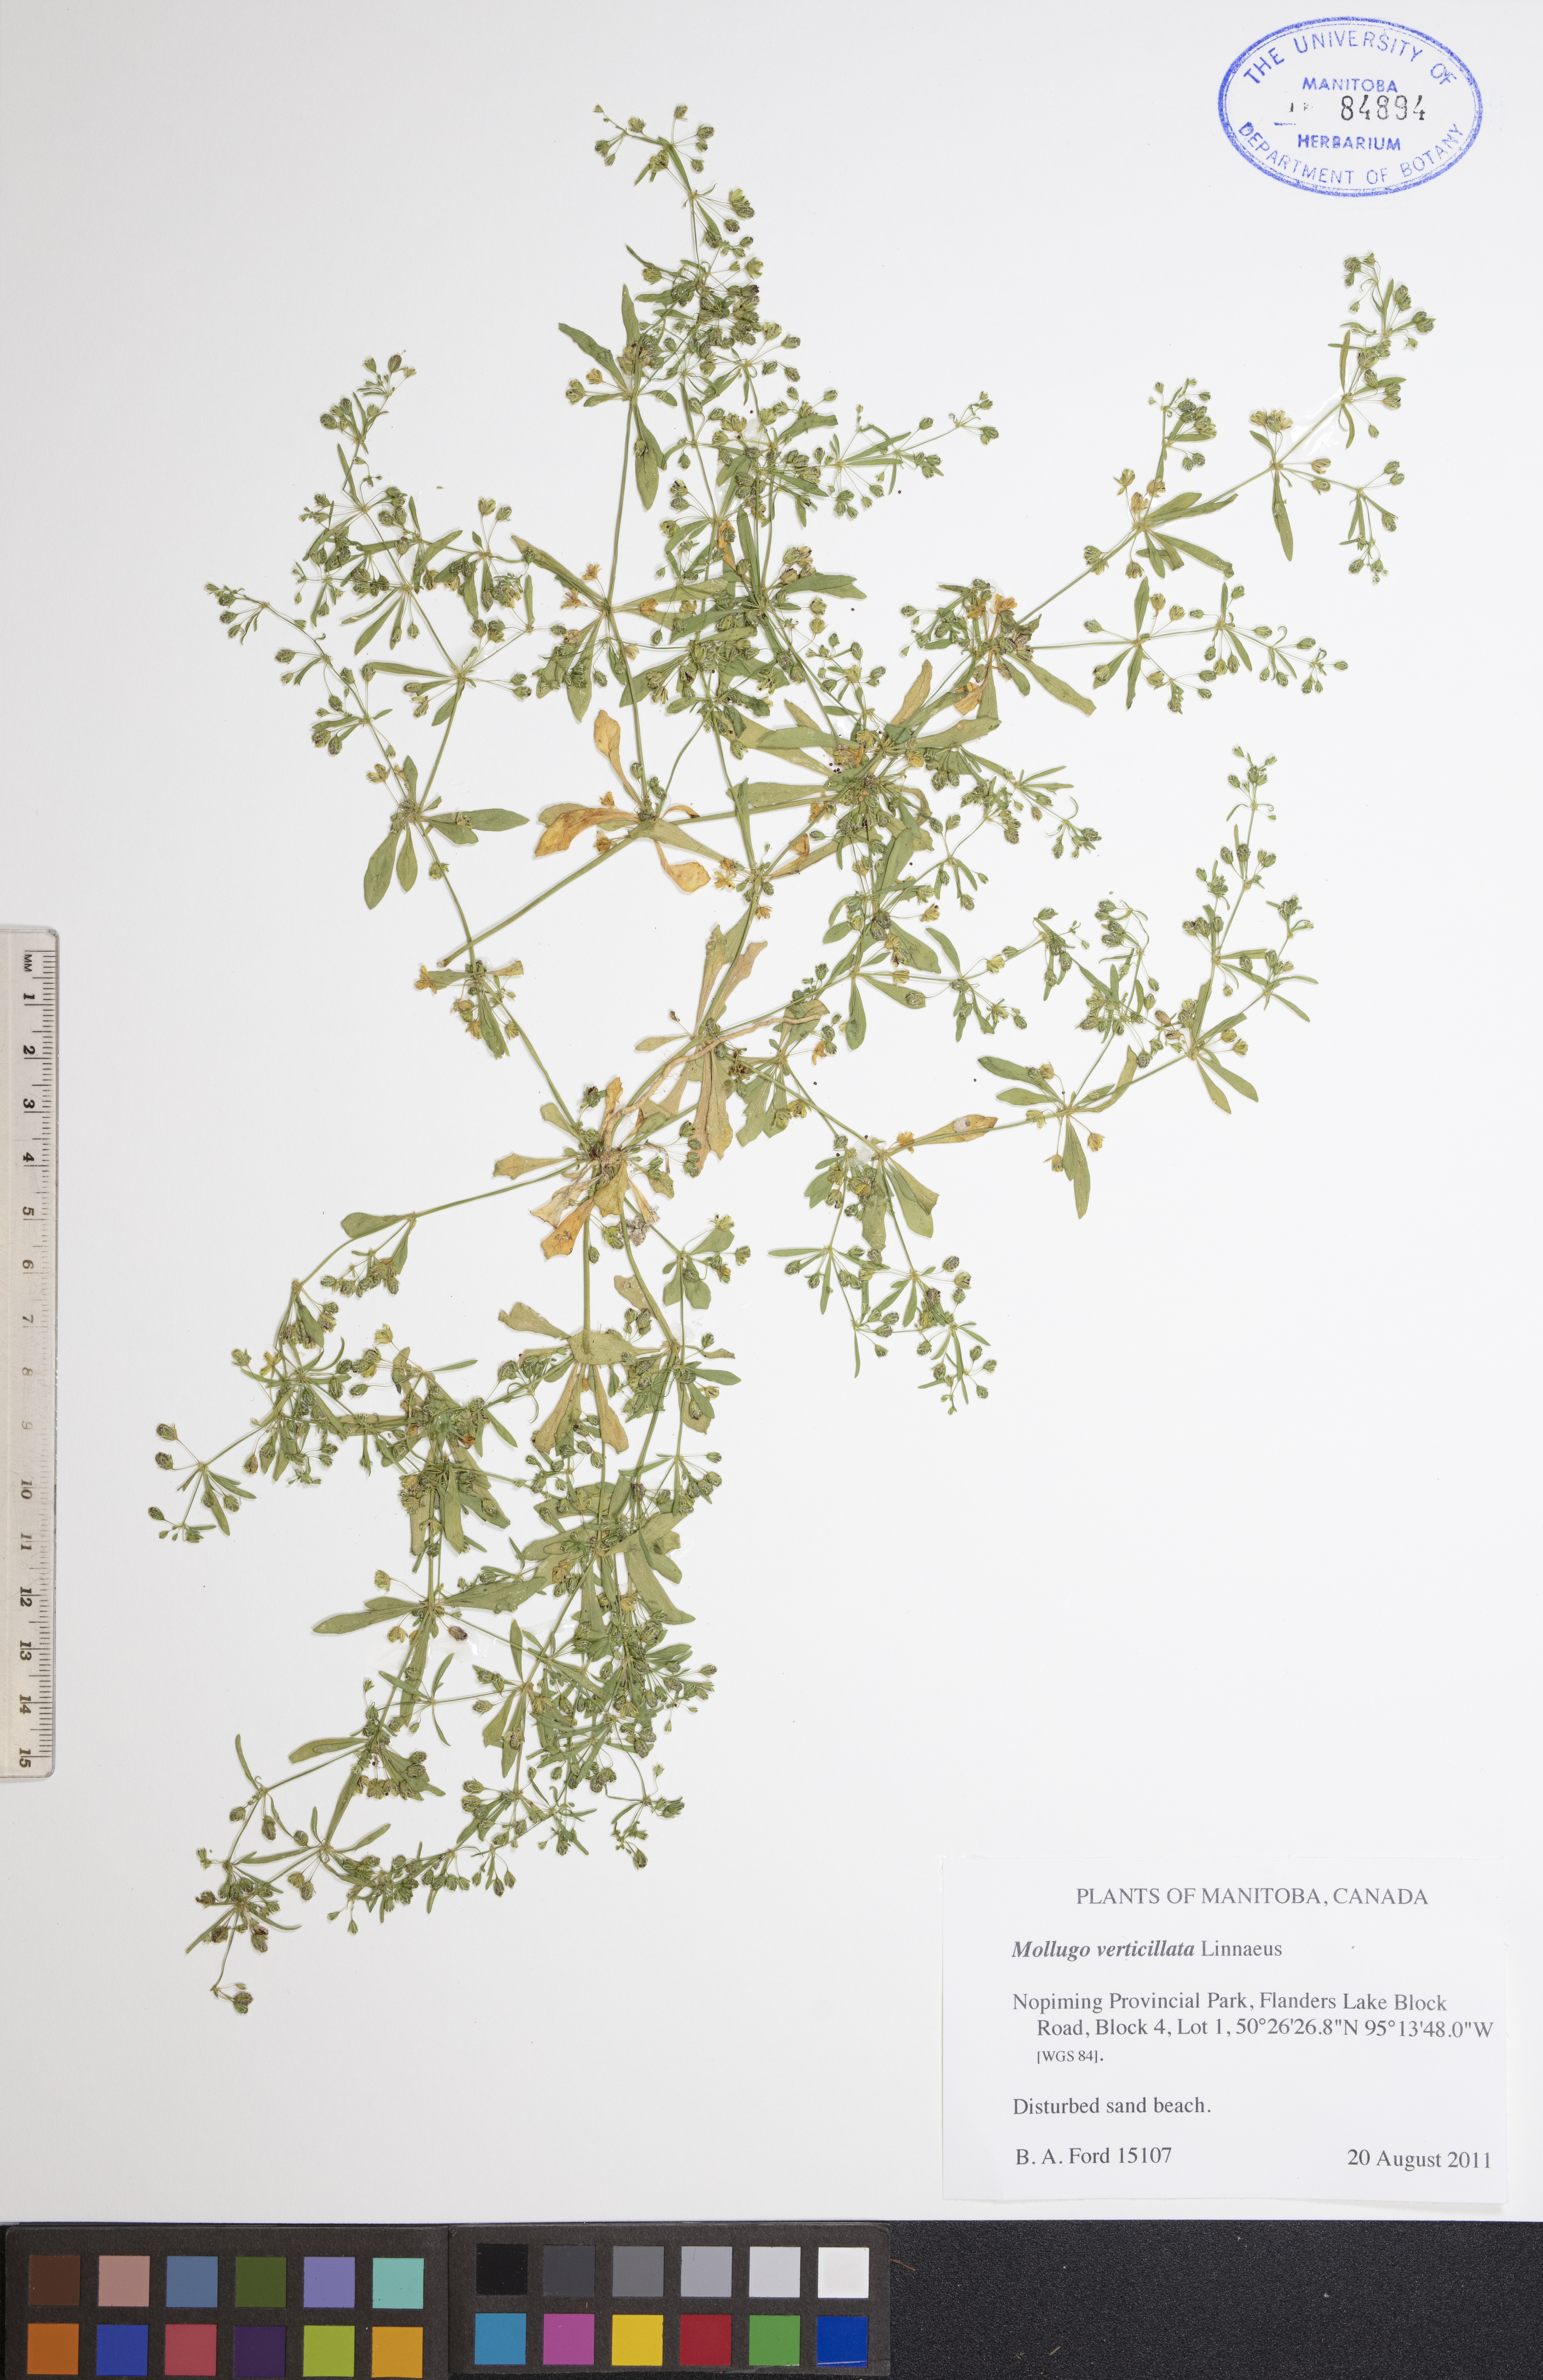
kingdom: Plantae
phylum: Tracheophyta
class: Magnoliopsida
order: Caryophyllales
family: Molluginaceae
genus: Mollugo
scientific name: Mollugo verticillata
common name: Green carpetweed
